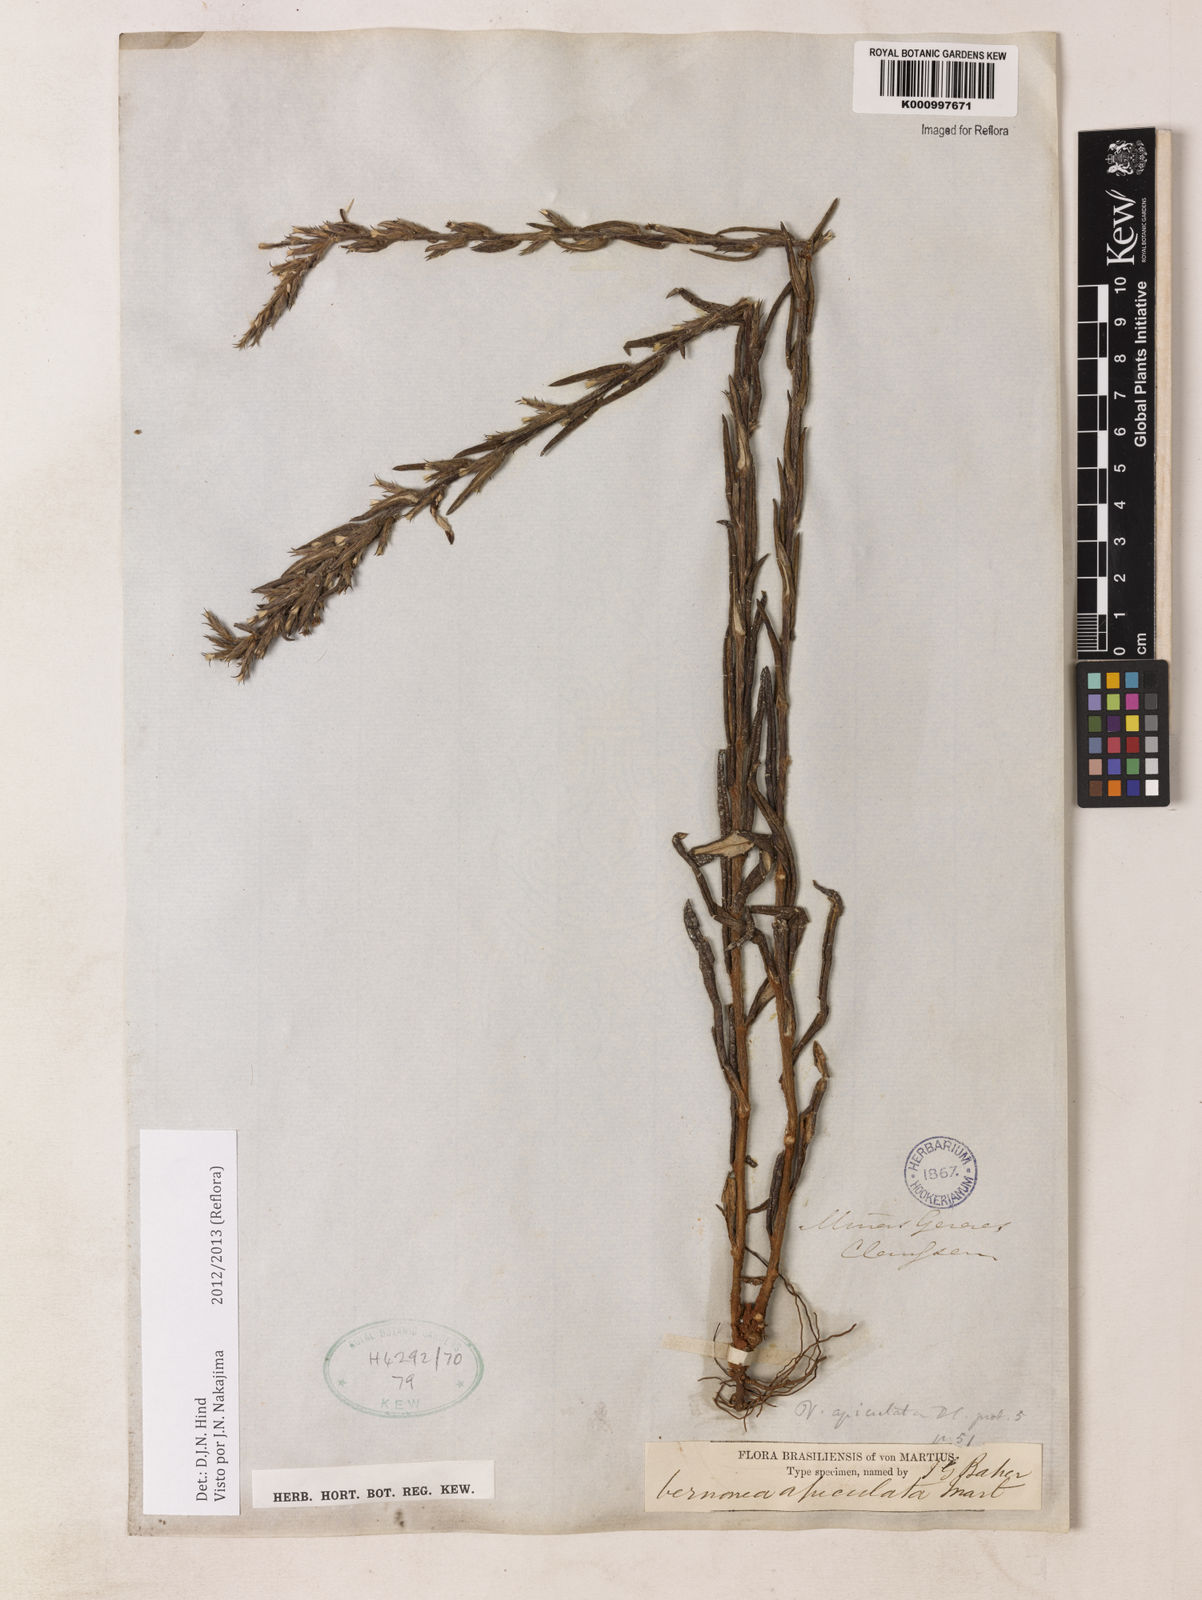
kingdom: Plantae
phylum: Tracheophyta
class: Magnoliopsida
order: Asterales
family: Asteraceae
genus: Stenocephalum
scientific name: Stenocephalum apiculatum
